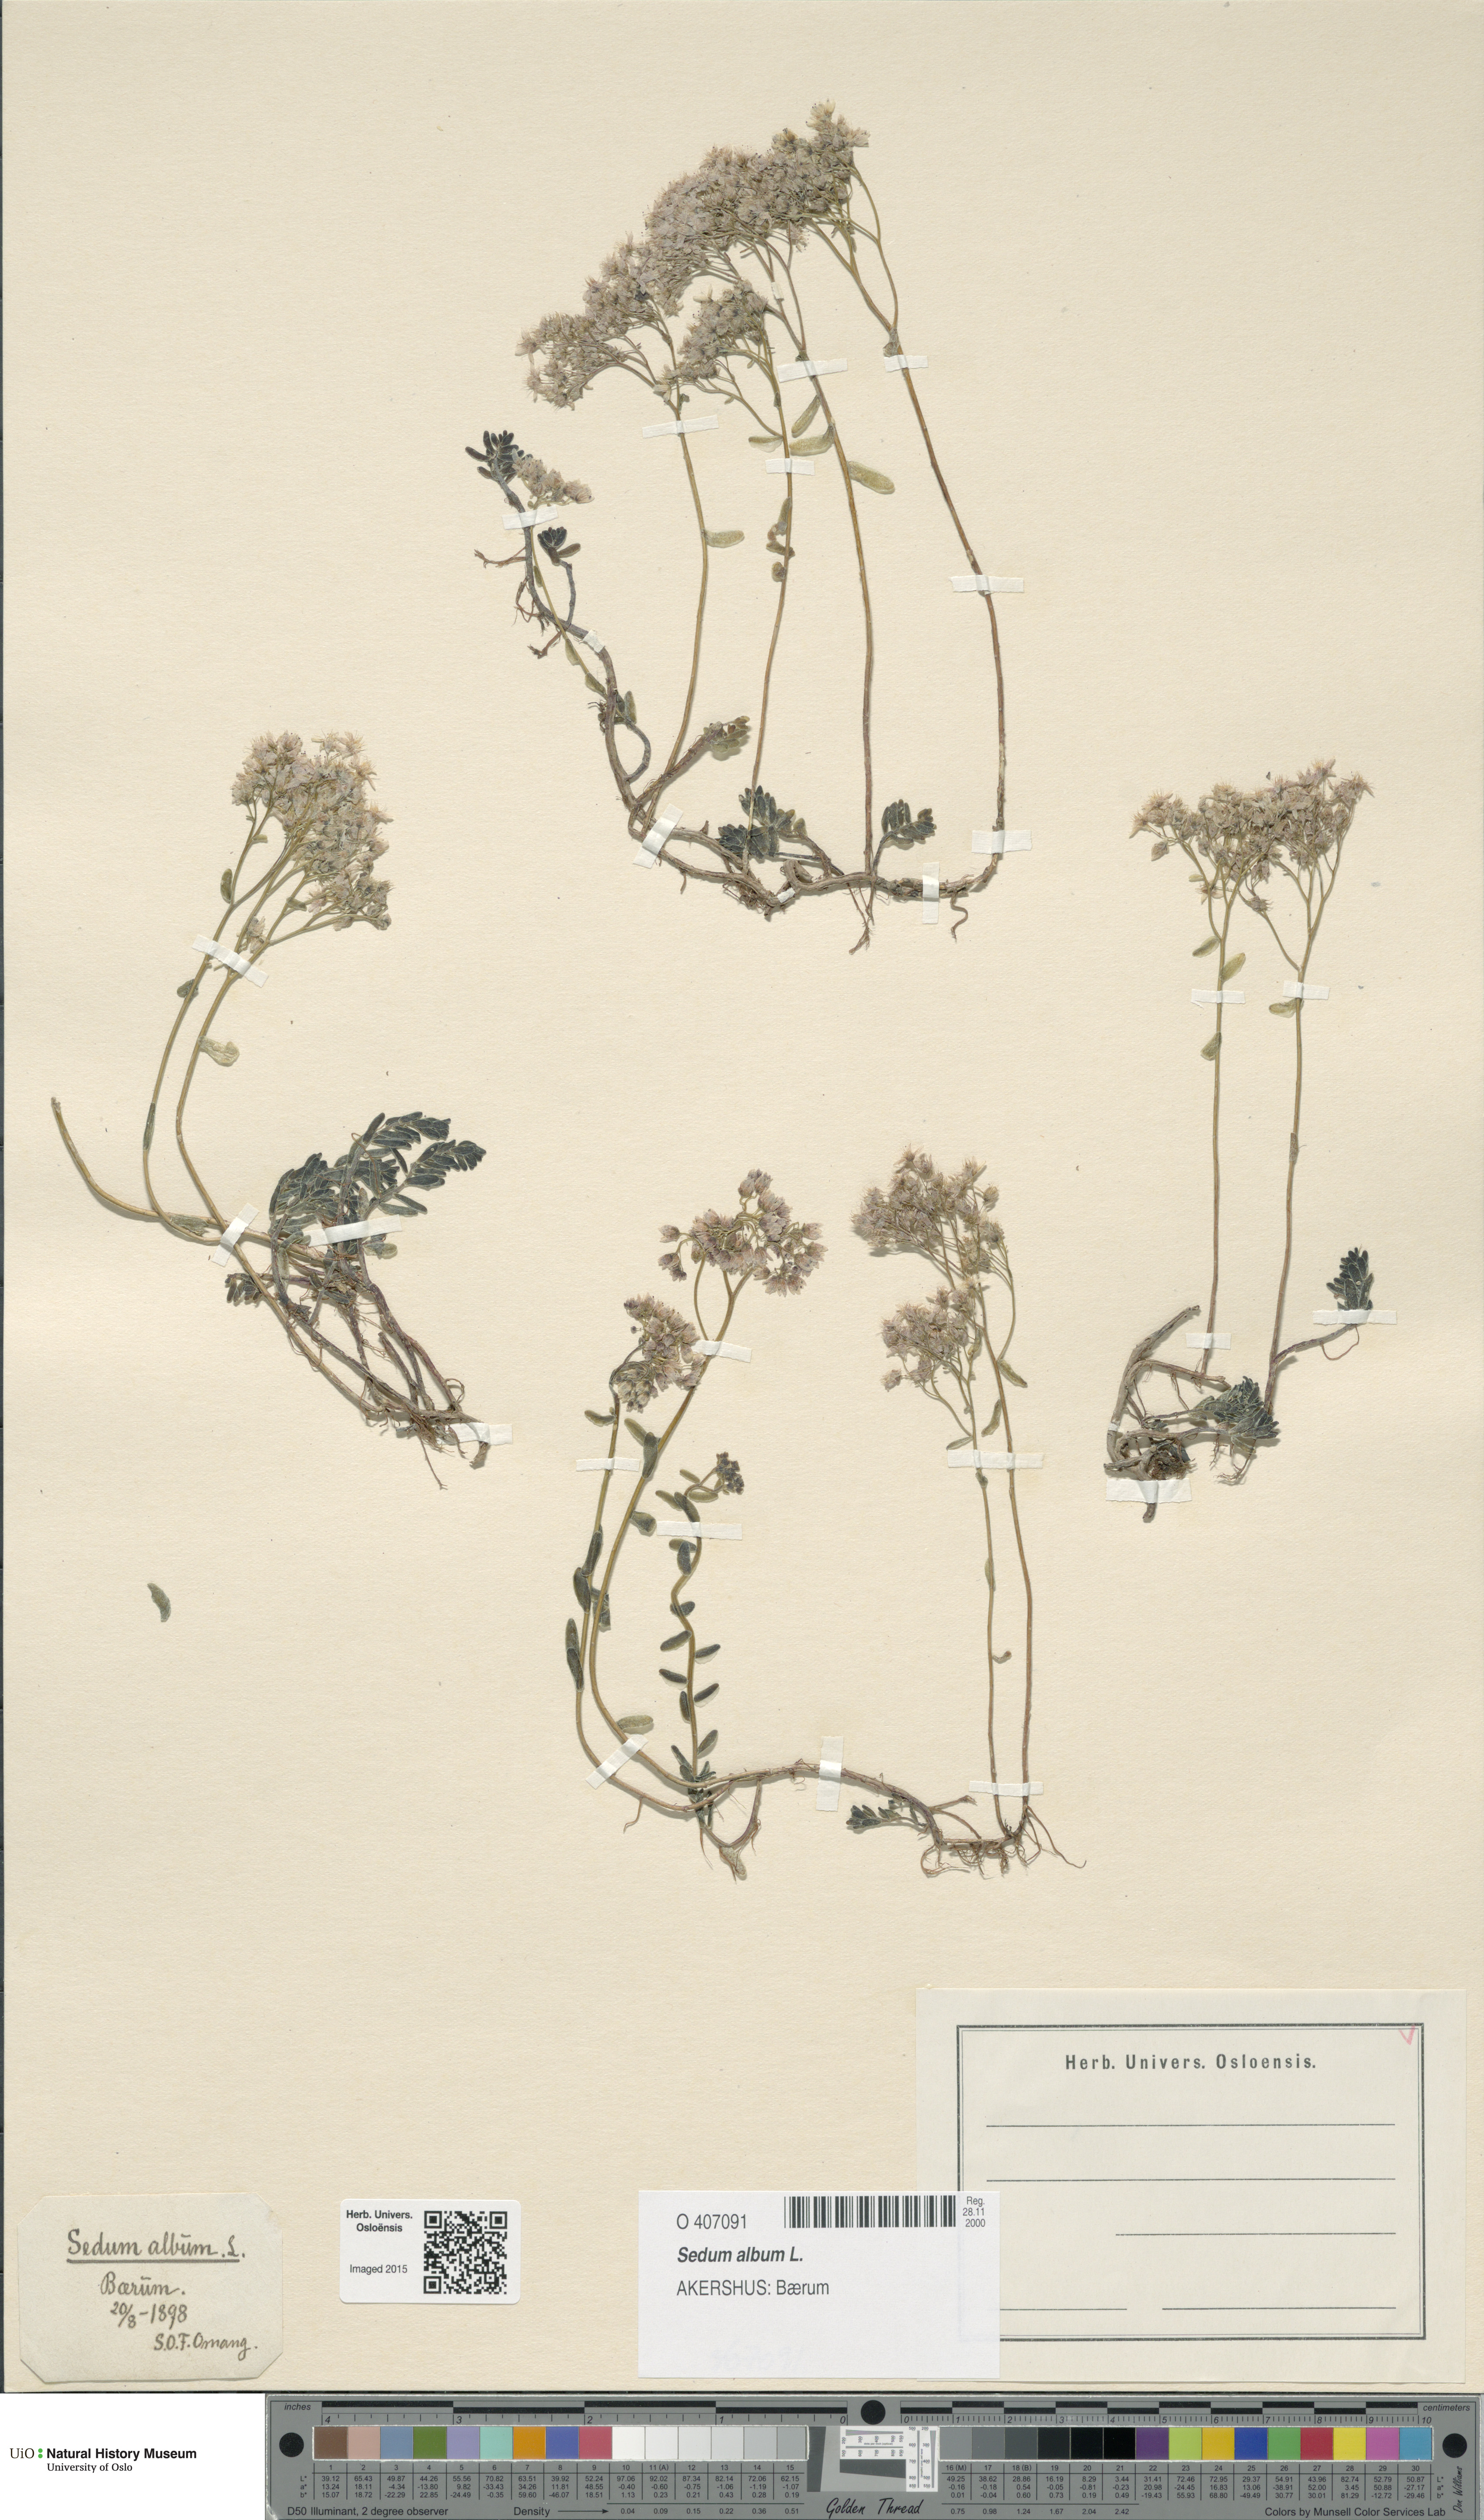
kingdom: Plantae
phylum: Tracheophyta
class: Magnoliopsida
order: Saxifragales
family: Crassulaceae
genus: Sedum
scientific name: Sedum album
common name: White stonecrop
